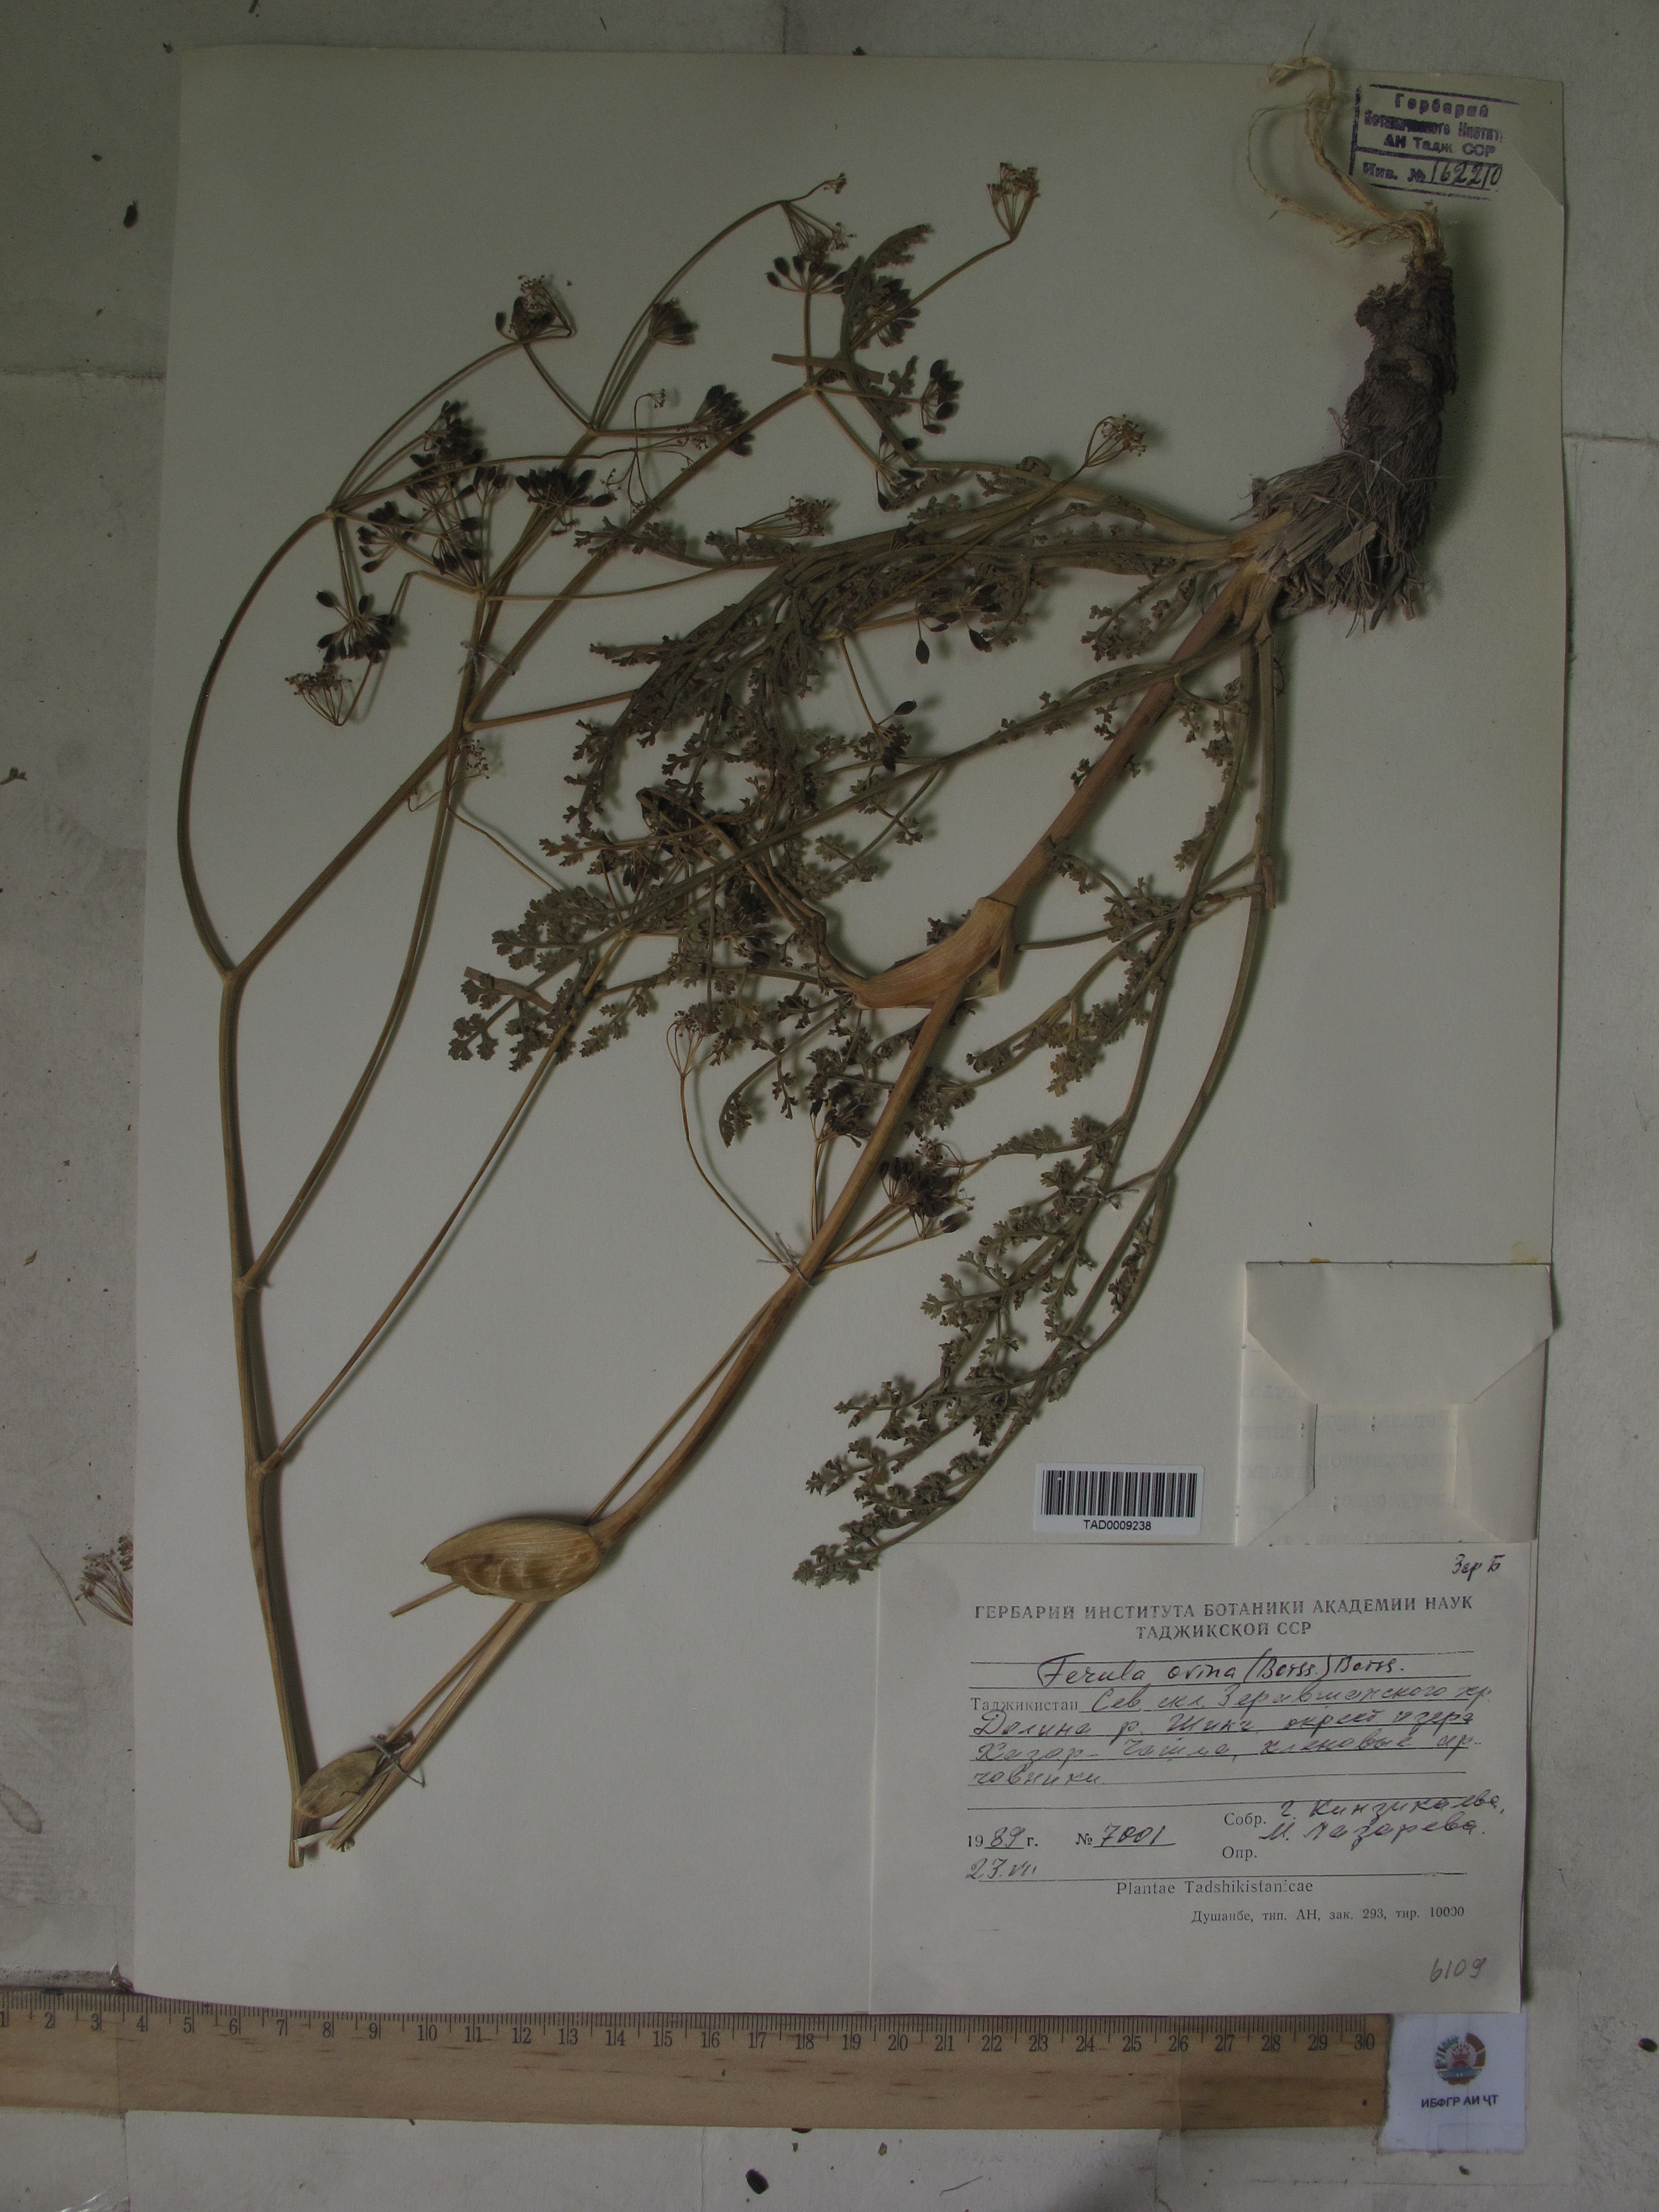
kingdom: Plantae
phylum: Tracheophyta
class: Magnoliopsida
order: Apiales
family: Apiaceae
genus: Ferula
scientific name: Ferula ovina
